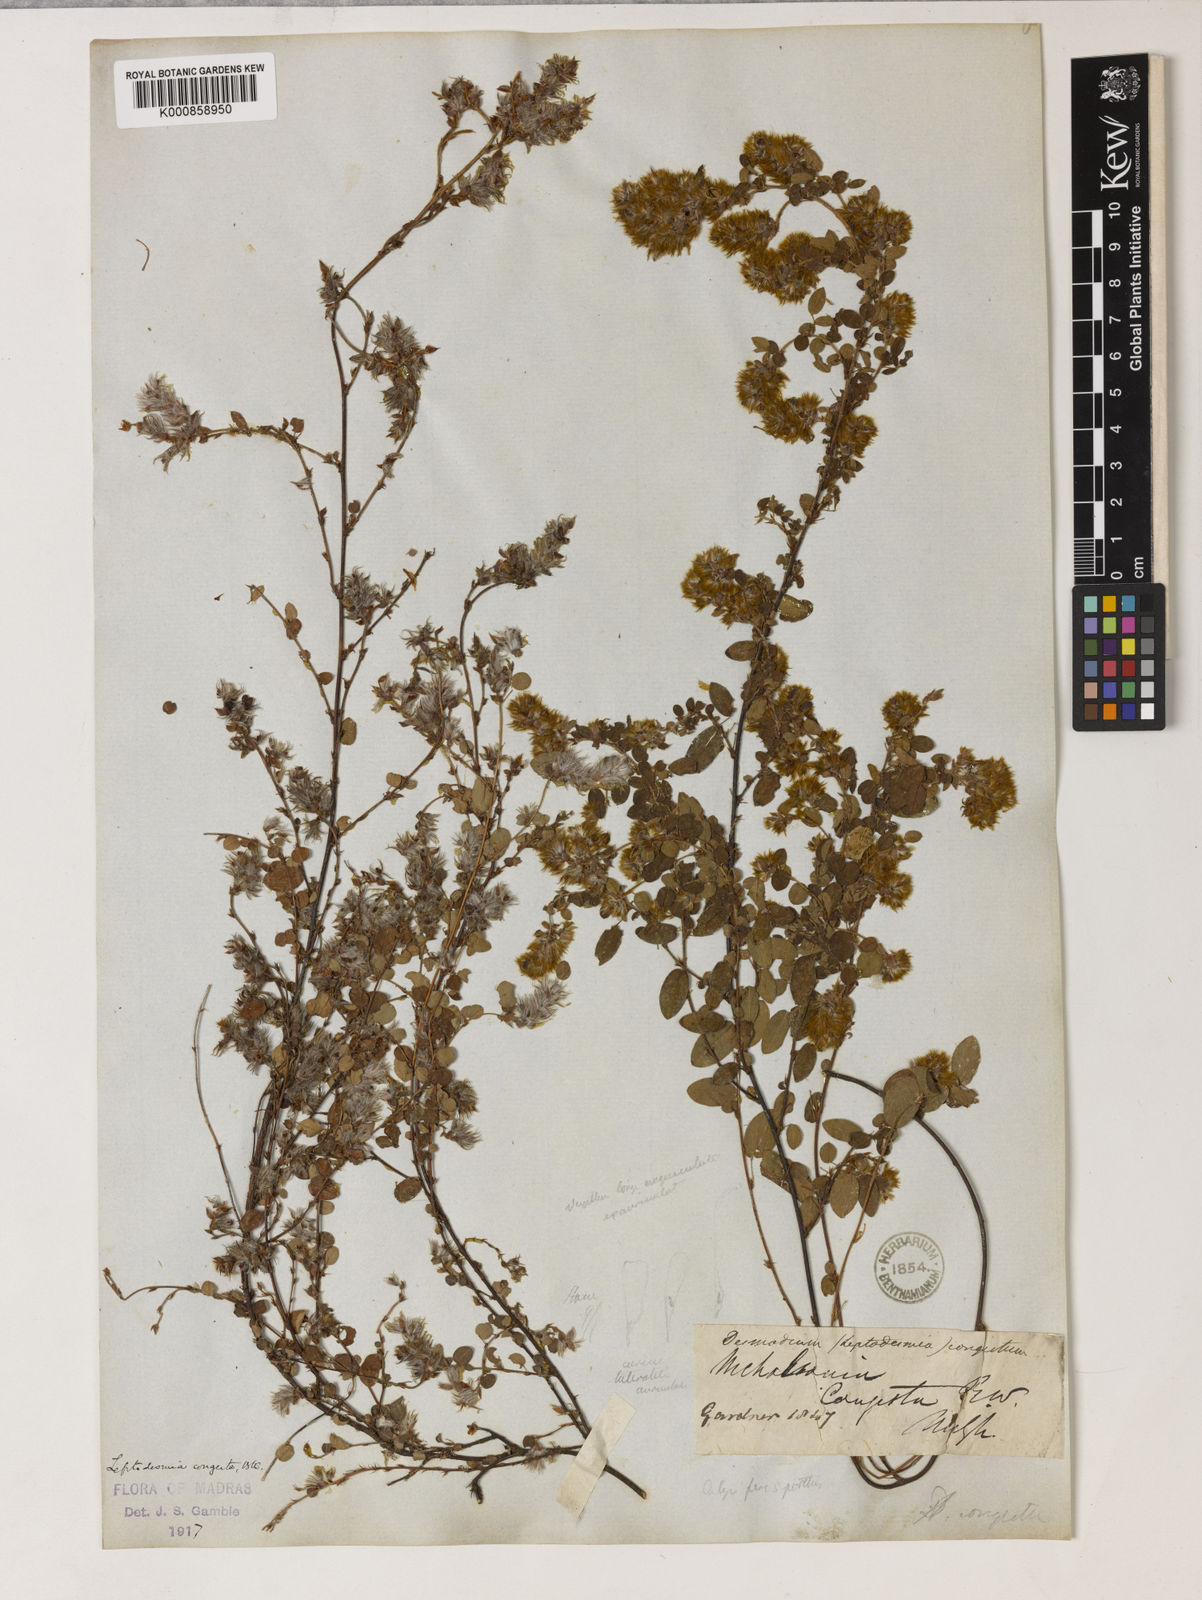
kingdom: Plantae
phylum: Tracheophyta
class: Magnoliopsida
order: Fabales
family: Fabaceae
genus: Leptodesmia
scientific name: Leptodesmia
